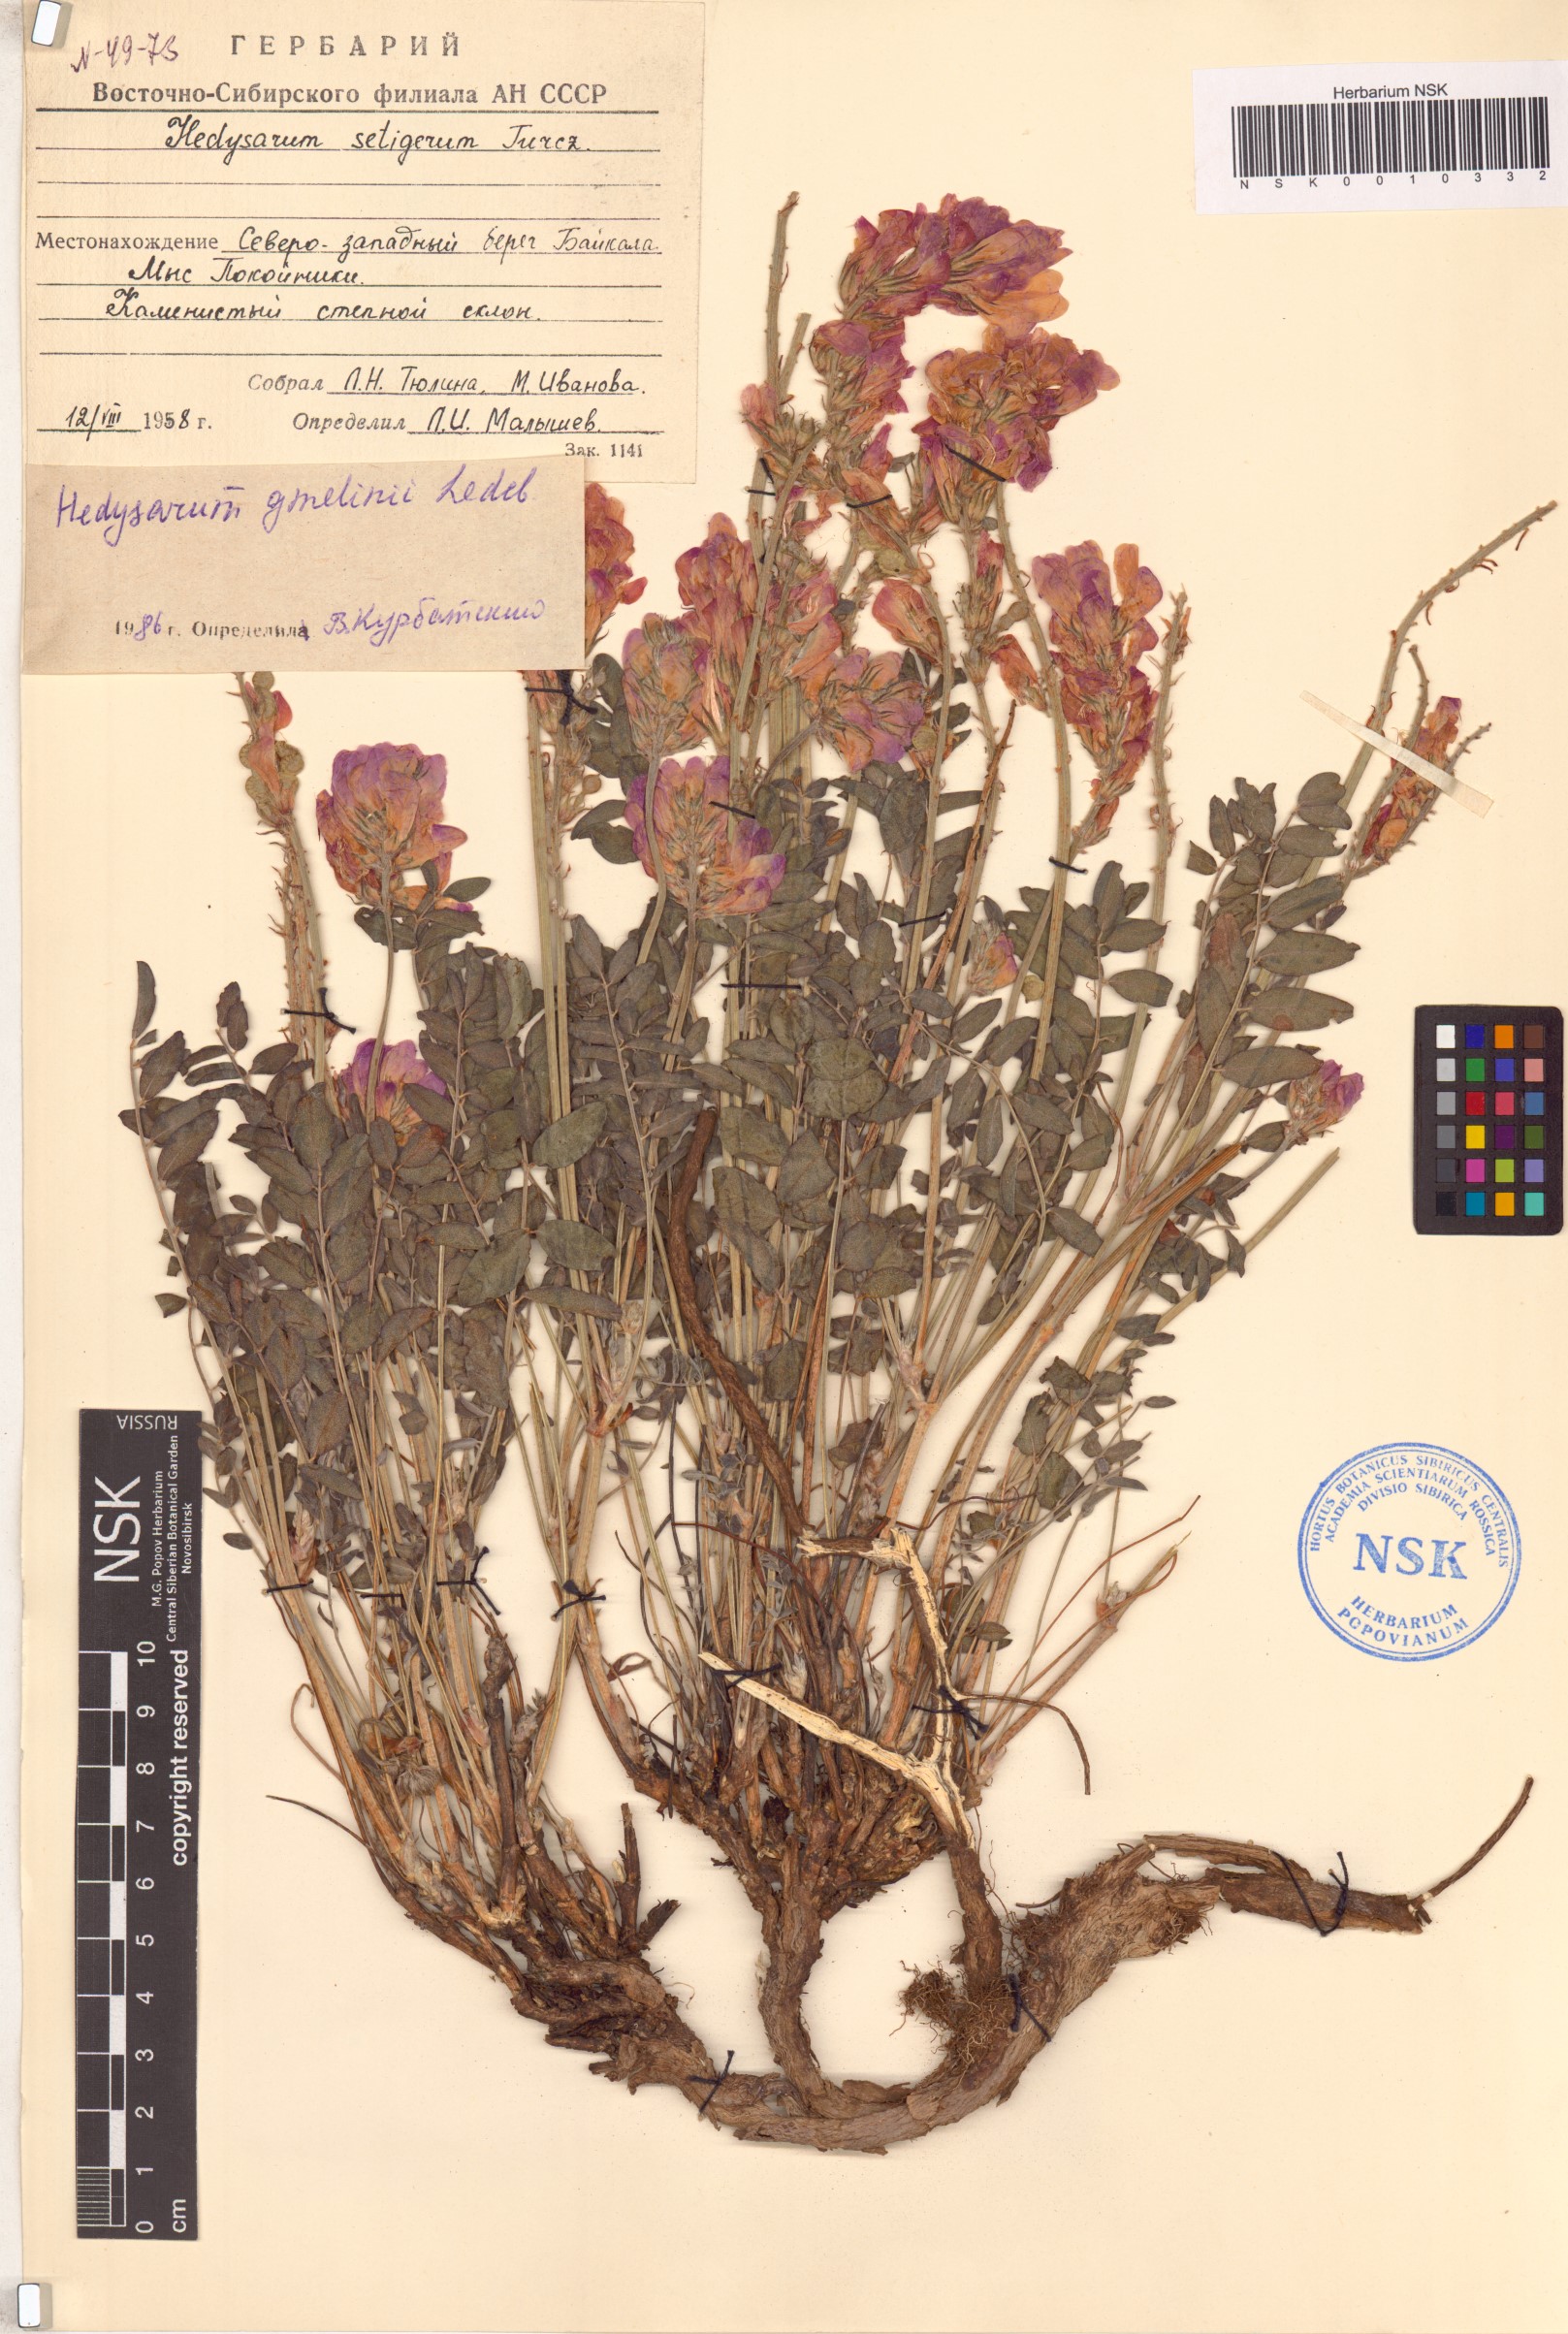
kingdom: Plantae
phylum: Tracheophyta
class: Magnoliopsida
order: Fabales
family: Fabaceae
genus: Hedysarum
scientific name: Hedysarum gmelinii
